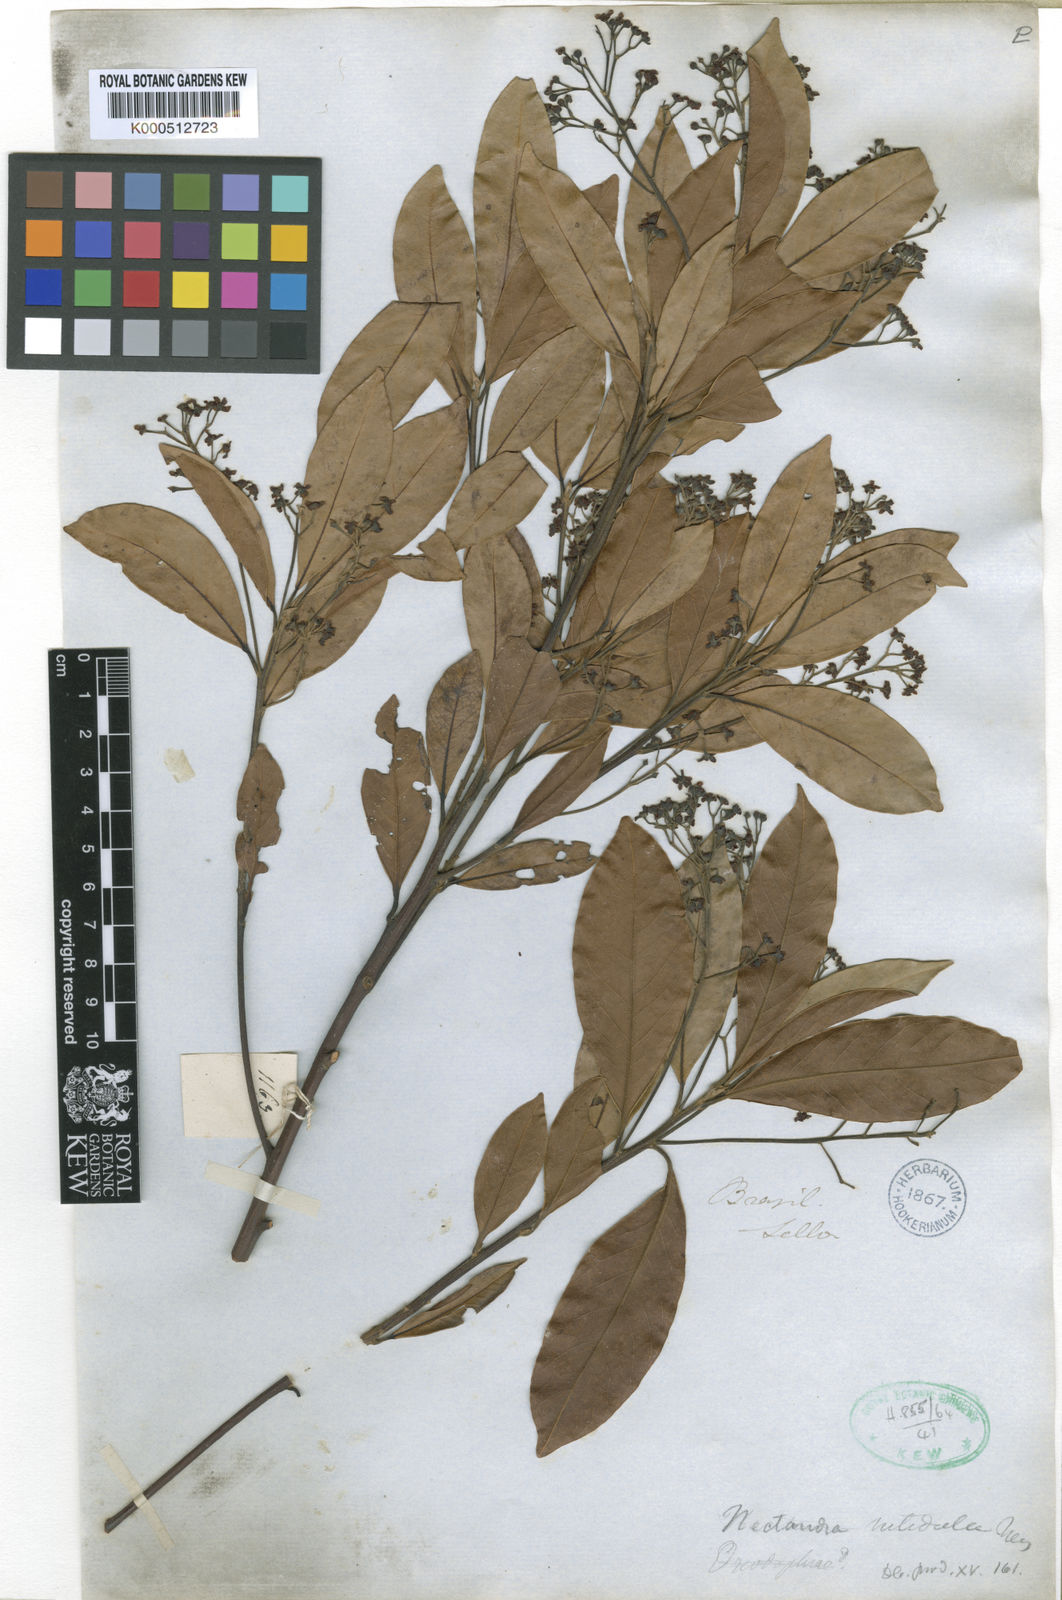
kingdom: Plantae
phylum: Tracheophyta
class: Magnoliopsida
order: Laurales
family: Lauraceae
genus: Nectandra
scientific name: Nectandra nitidula
